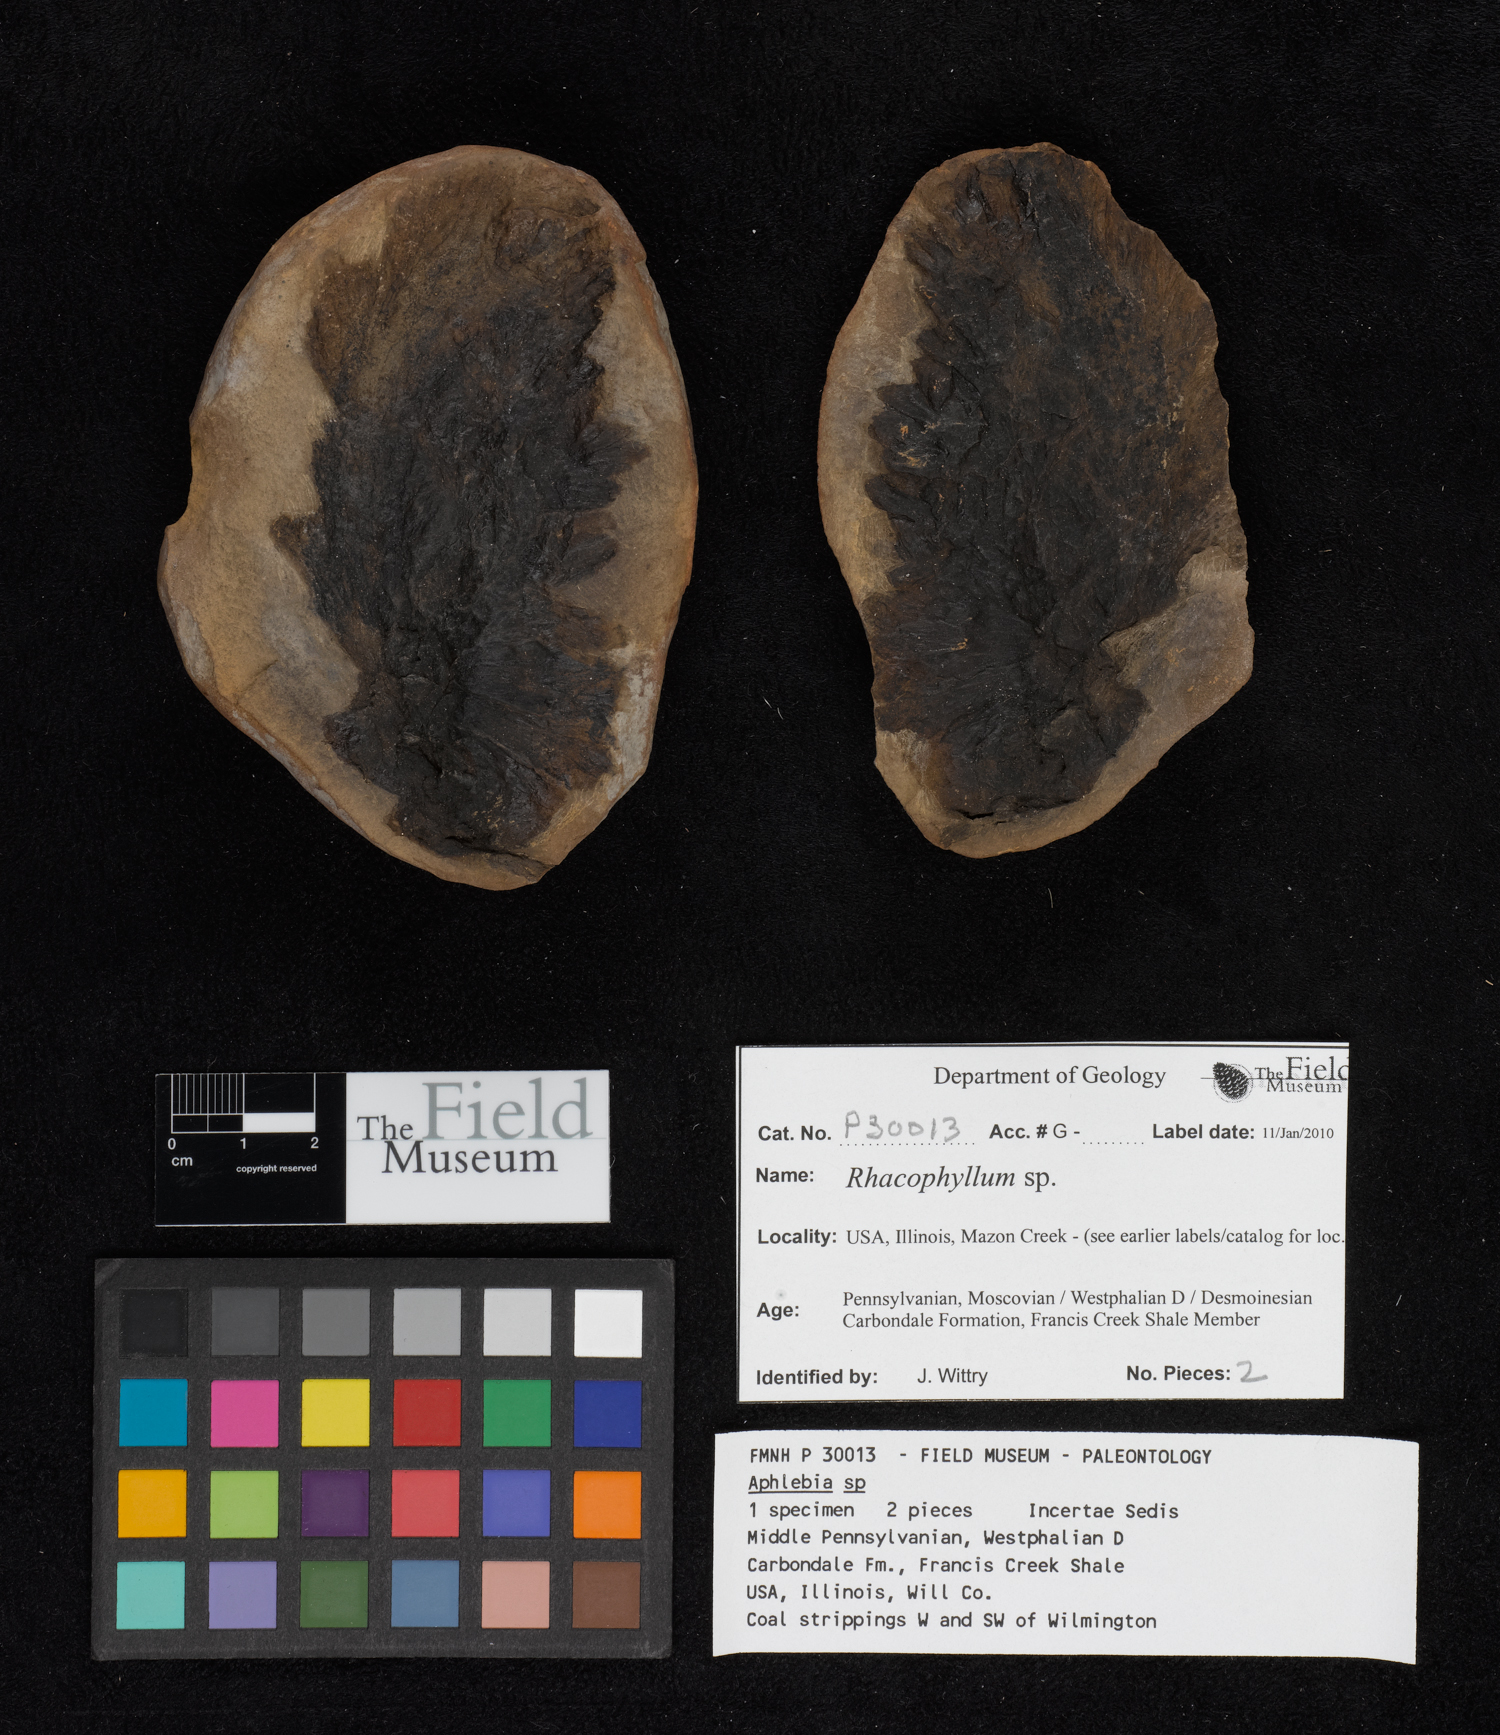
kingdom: Plantae
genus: Rhacophyllum
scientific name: Rhacophyllum
